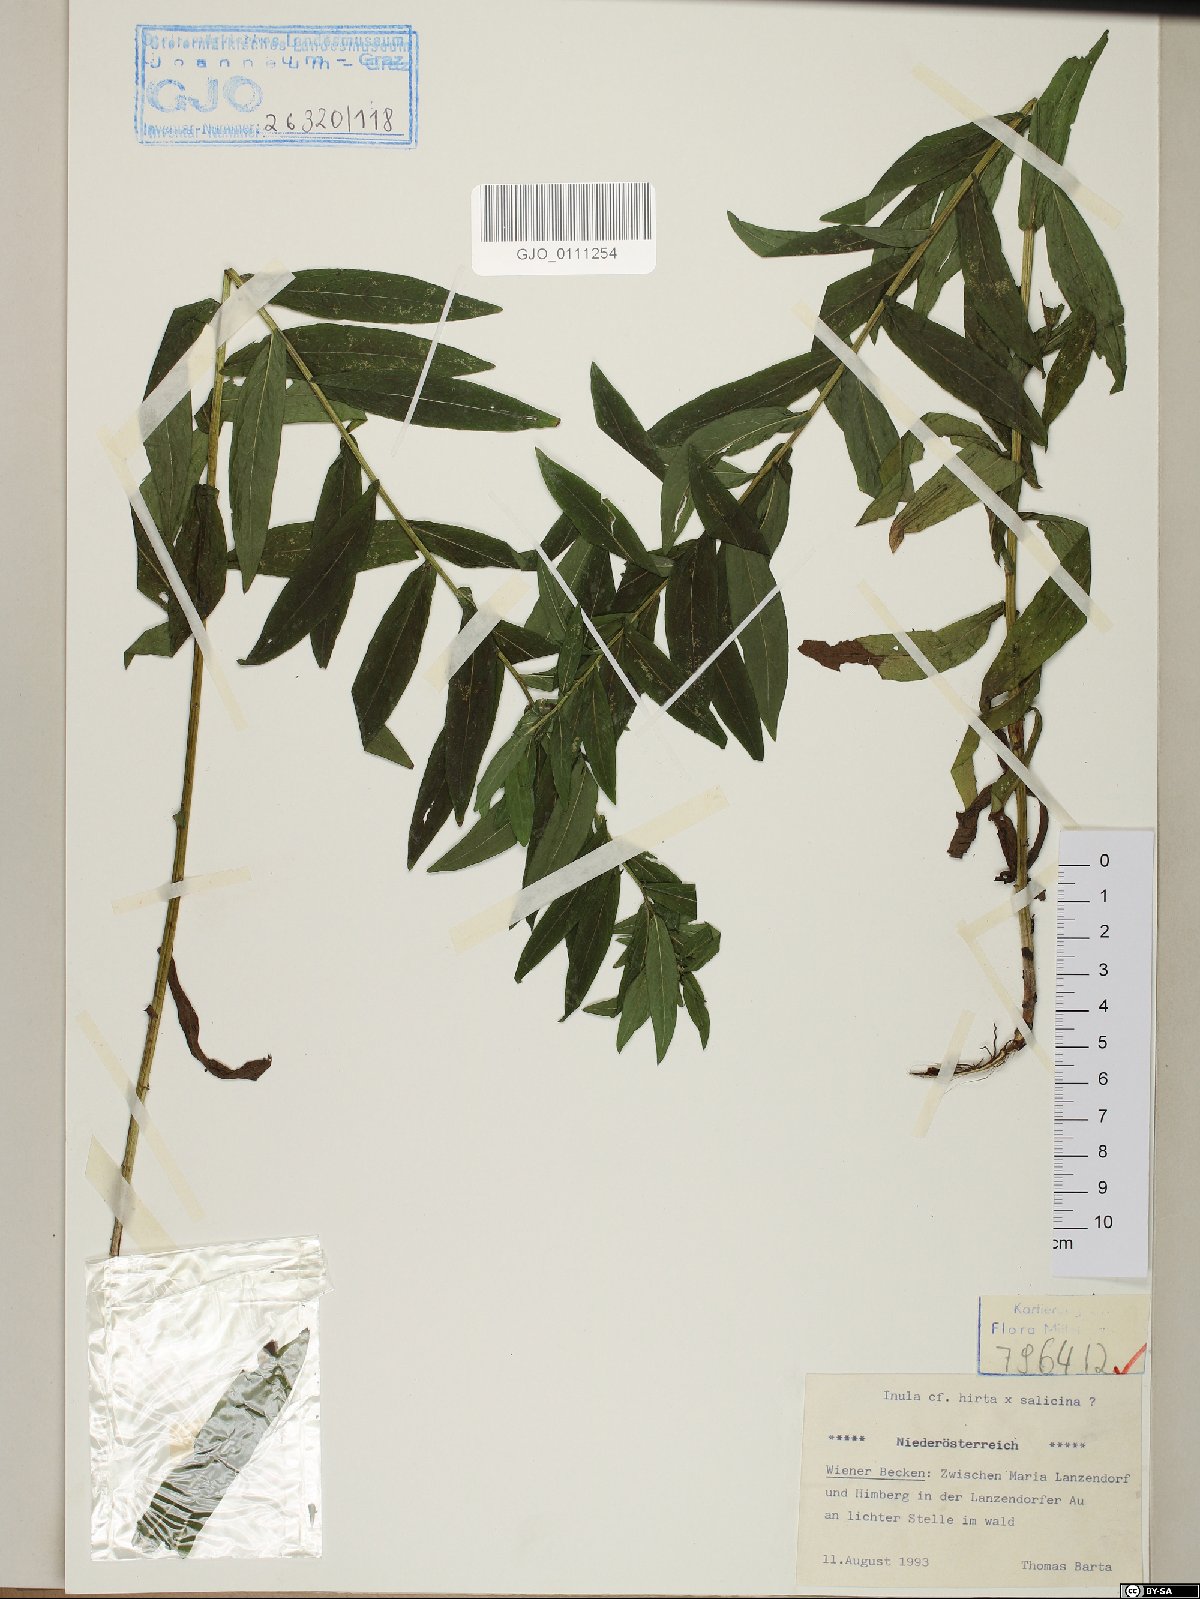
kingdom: Plantae
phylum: Tracheophyta
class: Magnoliopsida
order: Asterales
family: Asteraceae
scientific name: Asteraceae
